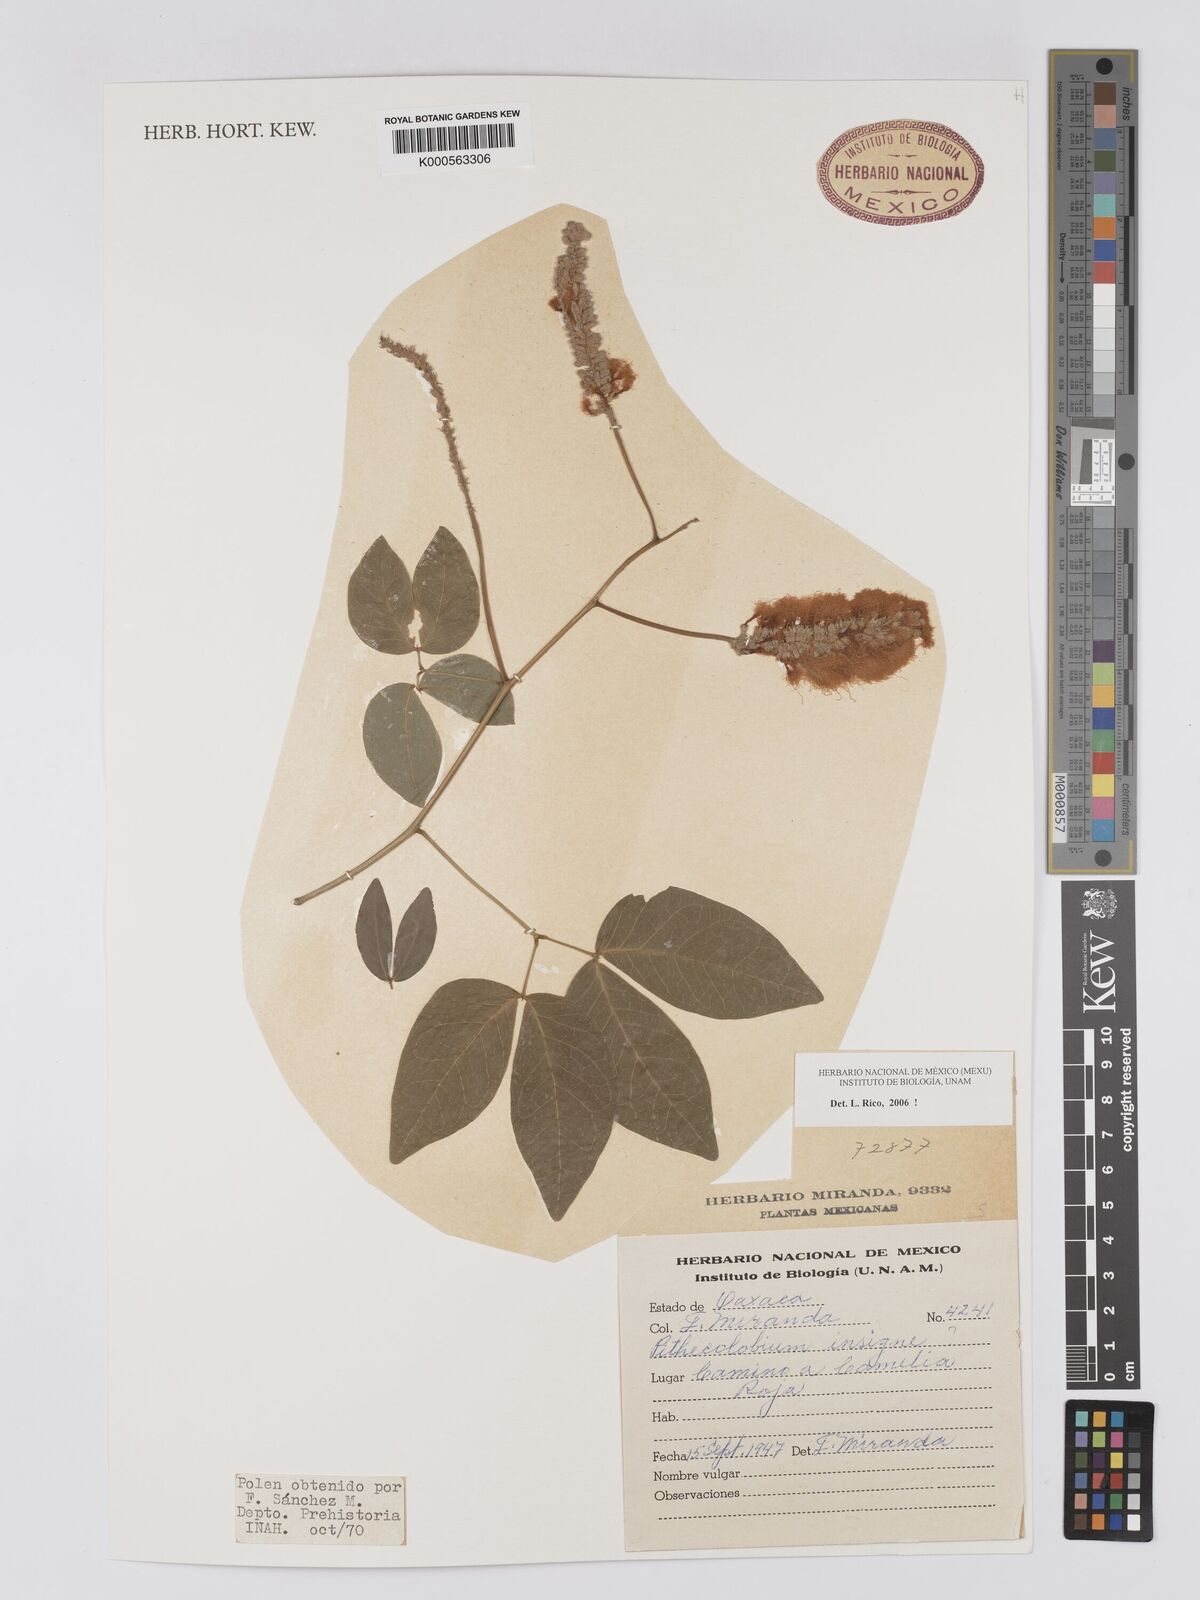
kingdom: Plantae
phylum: Tracheophyta
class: Magnoliopsida
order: Fabales
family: Fabaceae
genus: Pithecellobium
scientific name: Pithecellobium lanceolatum
